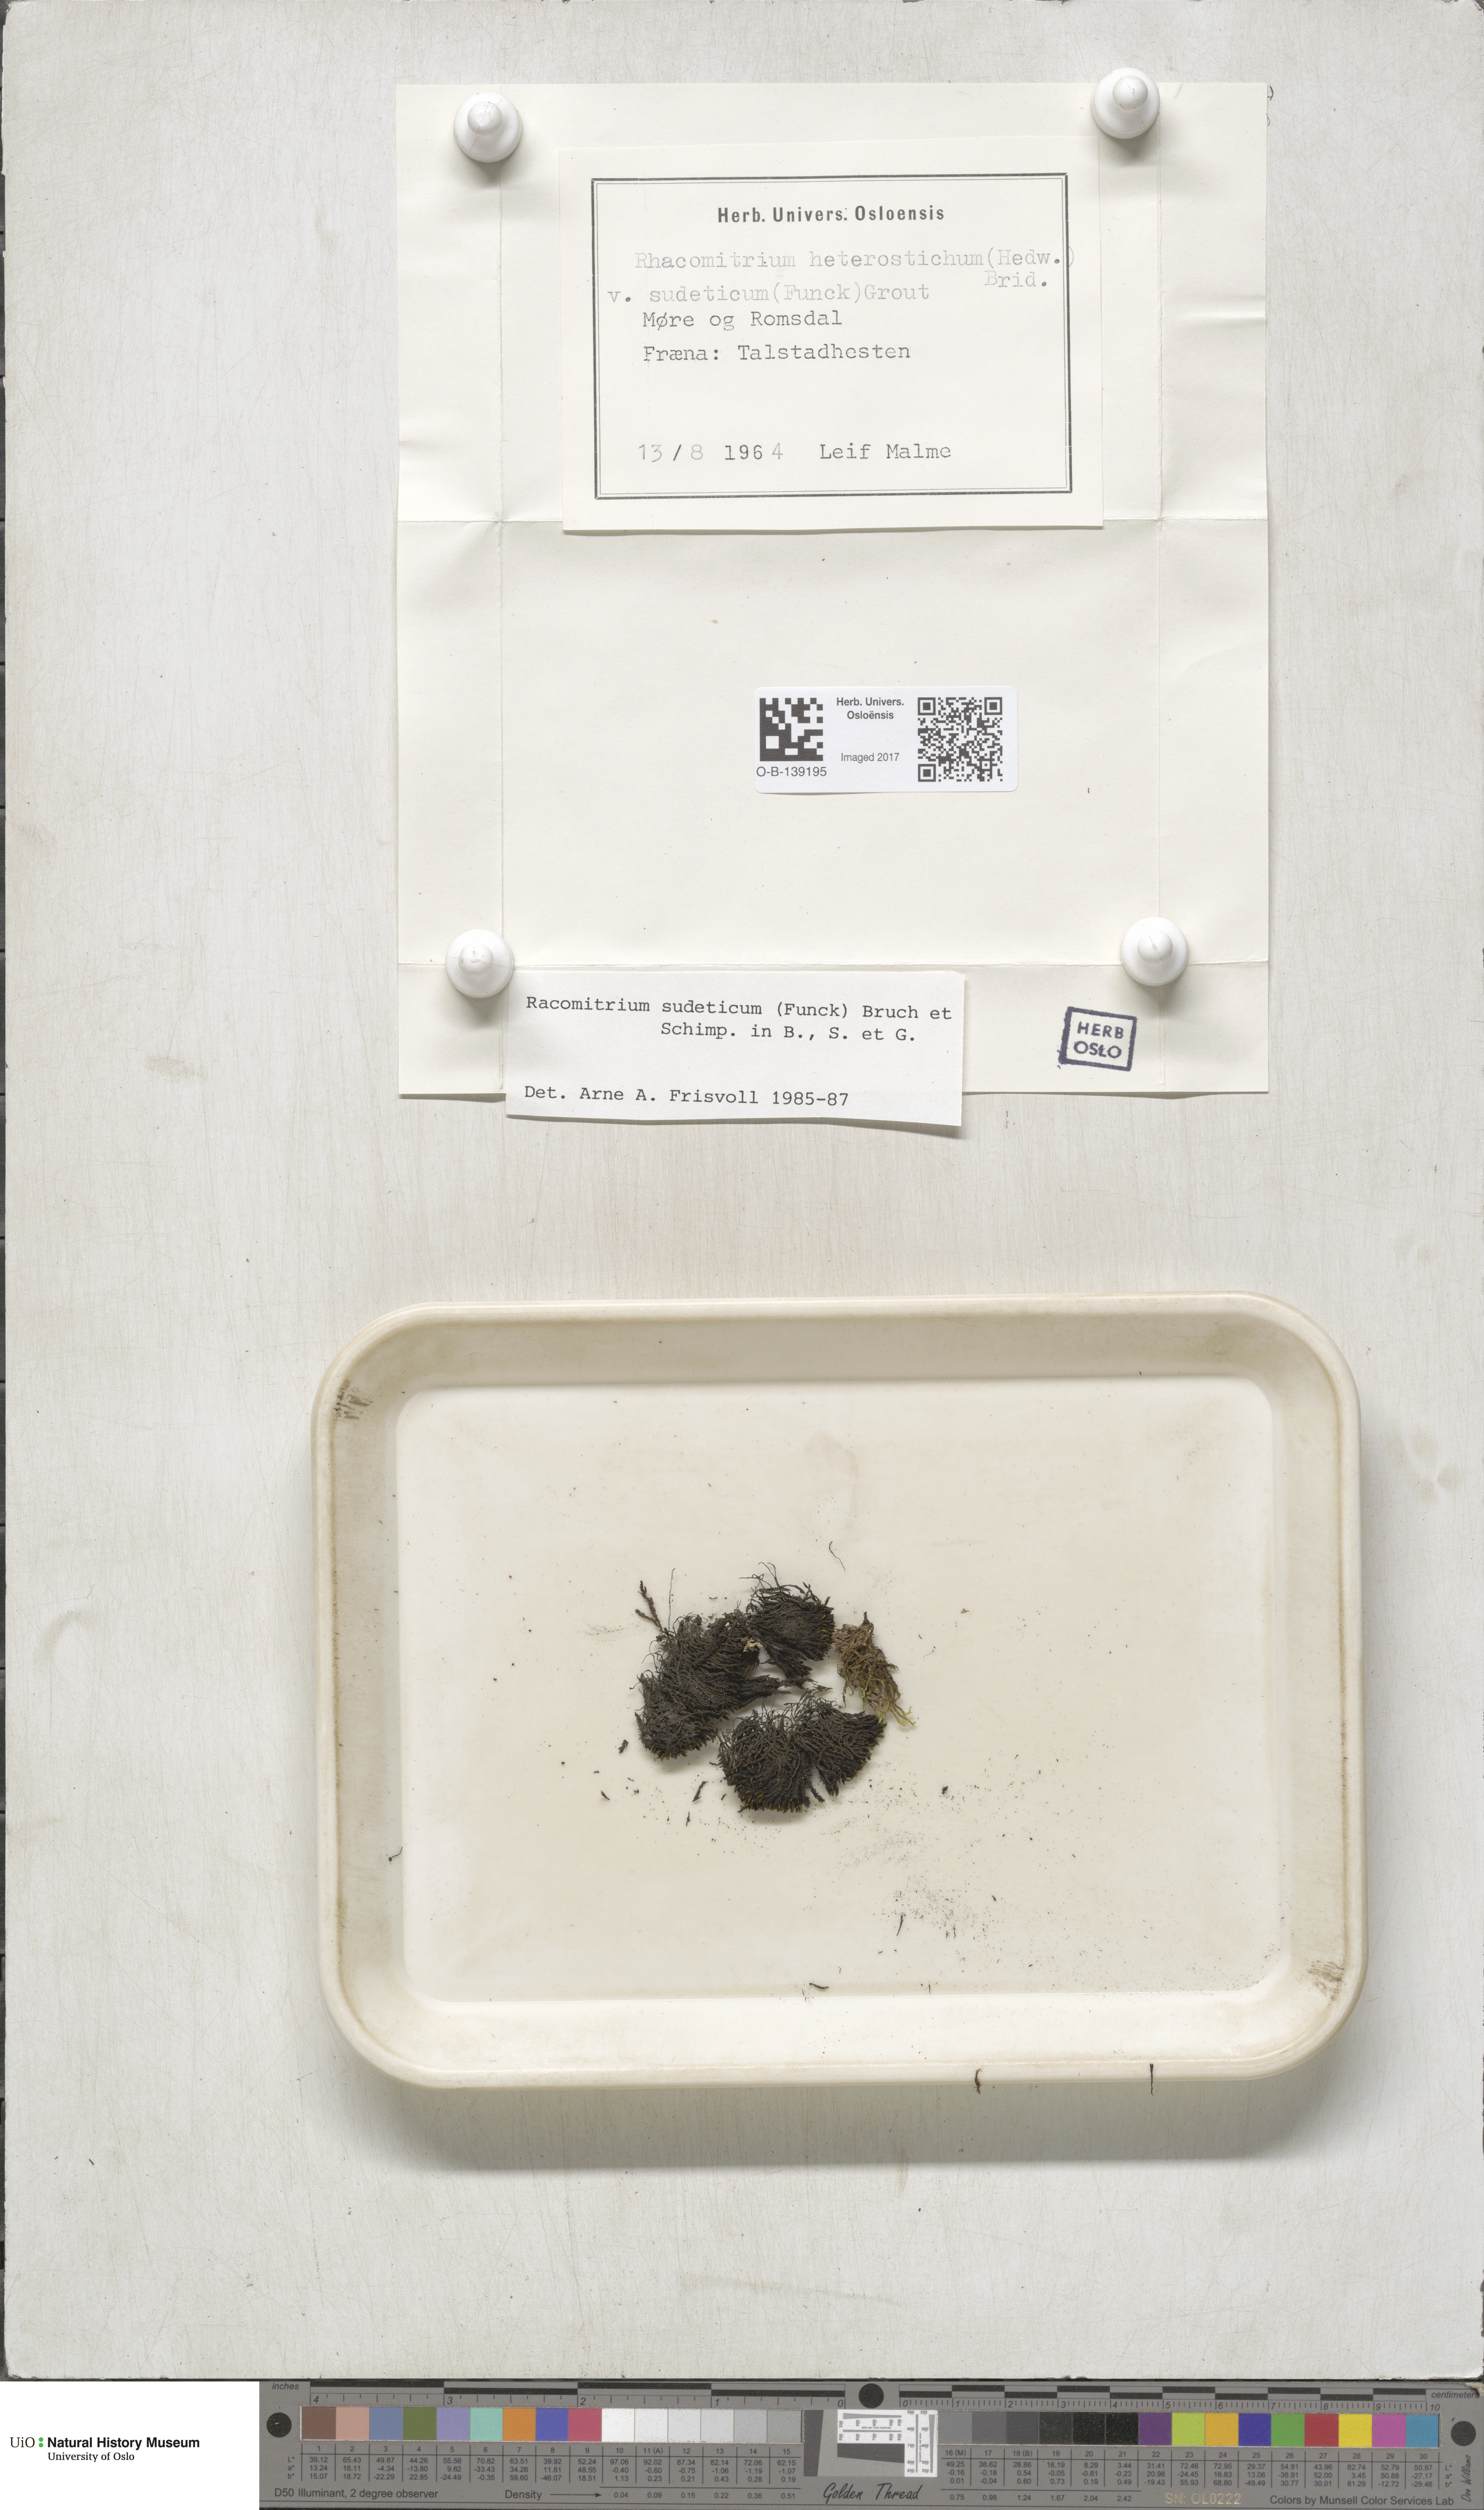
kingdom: Plantae
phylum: Bryophyta
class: Bryopsida
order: Grimmiales
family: Grimmiaceae
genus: Bucklandiella
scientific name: Bucklandiella sudetica
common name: Slender fringe-moss
